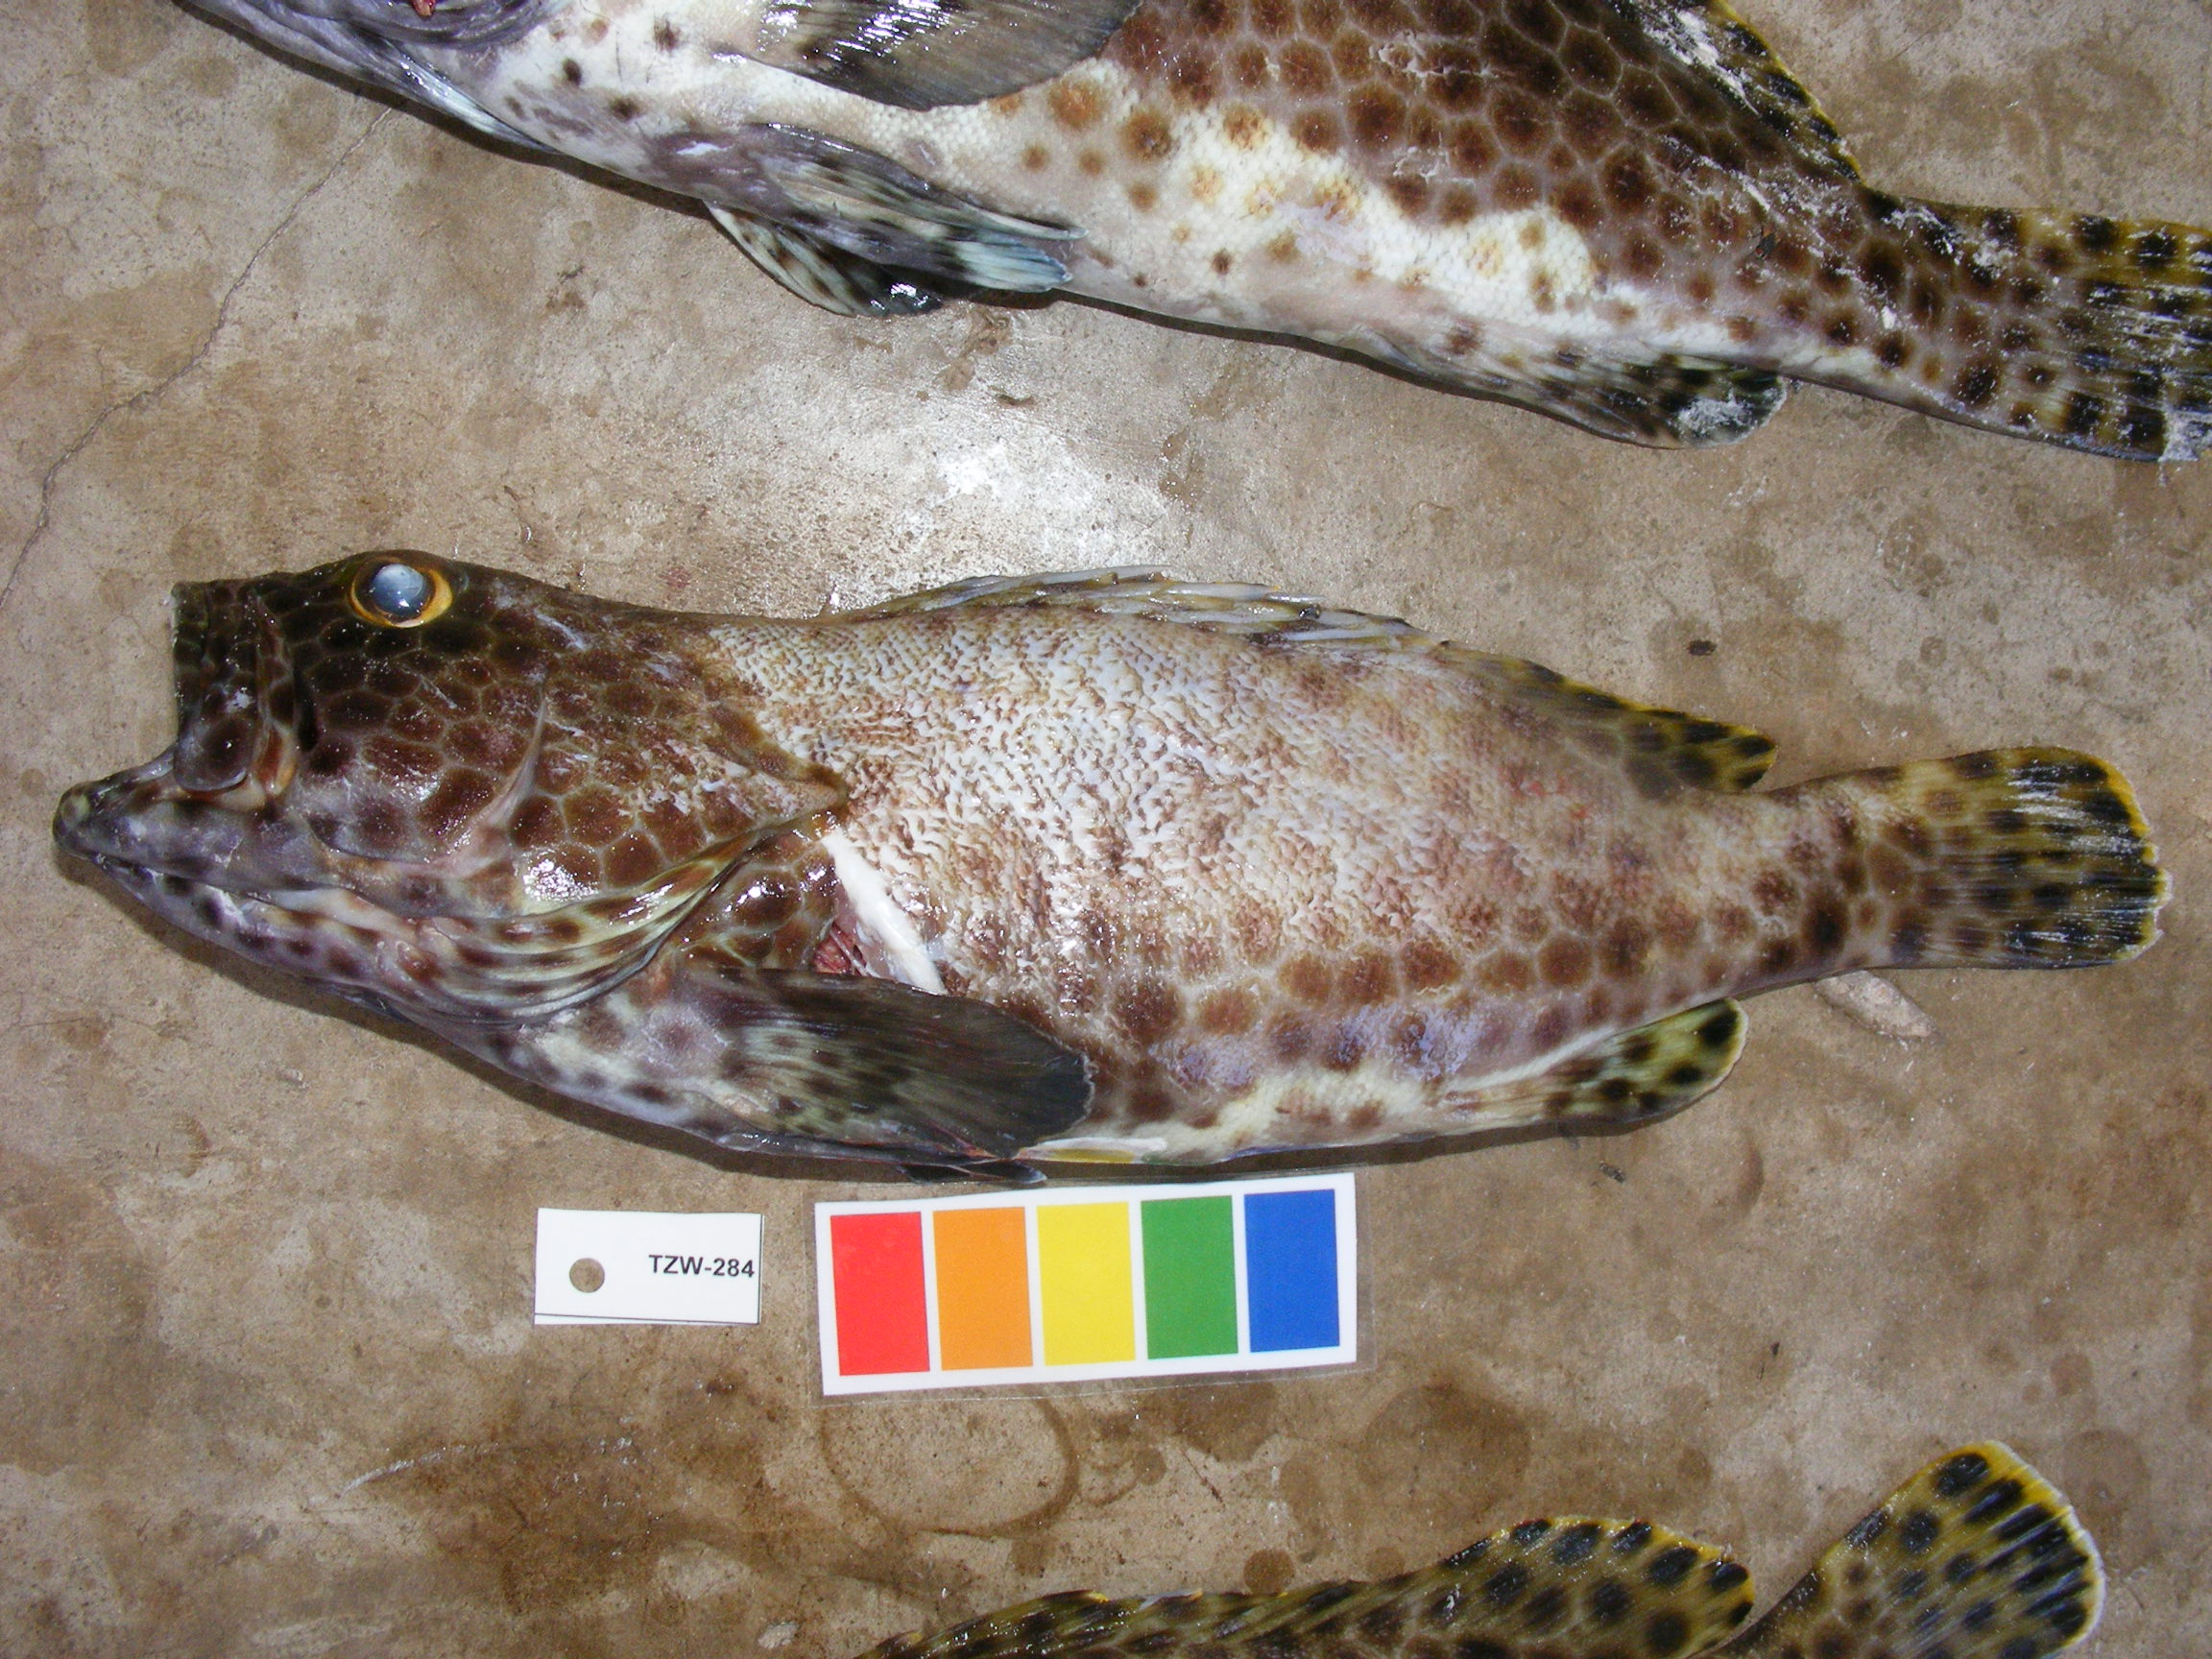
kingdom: Animalia
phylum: Chordata
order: Perciformes
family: Serranidae
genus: Epinephelus
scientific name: Epinephelus macrospilos
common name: Snubnose grouper
